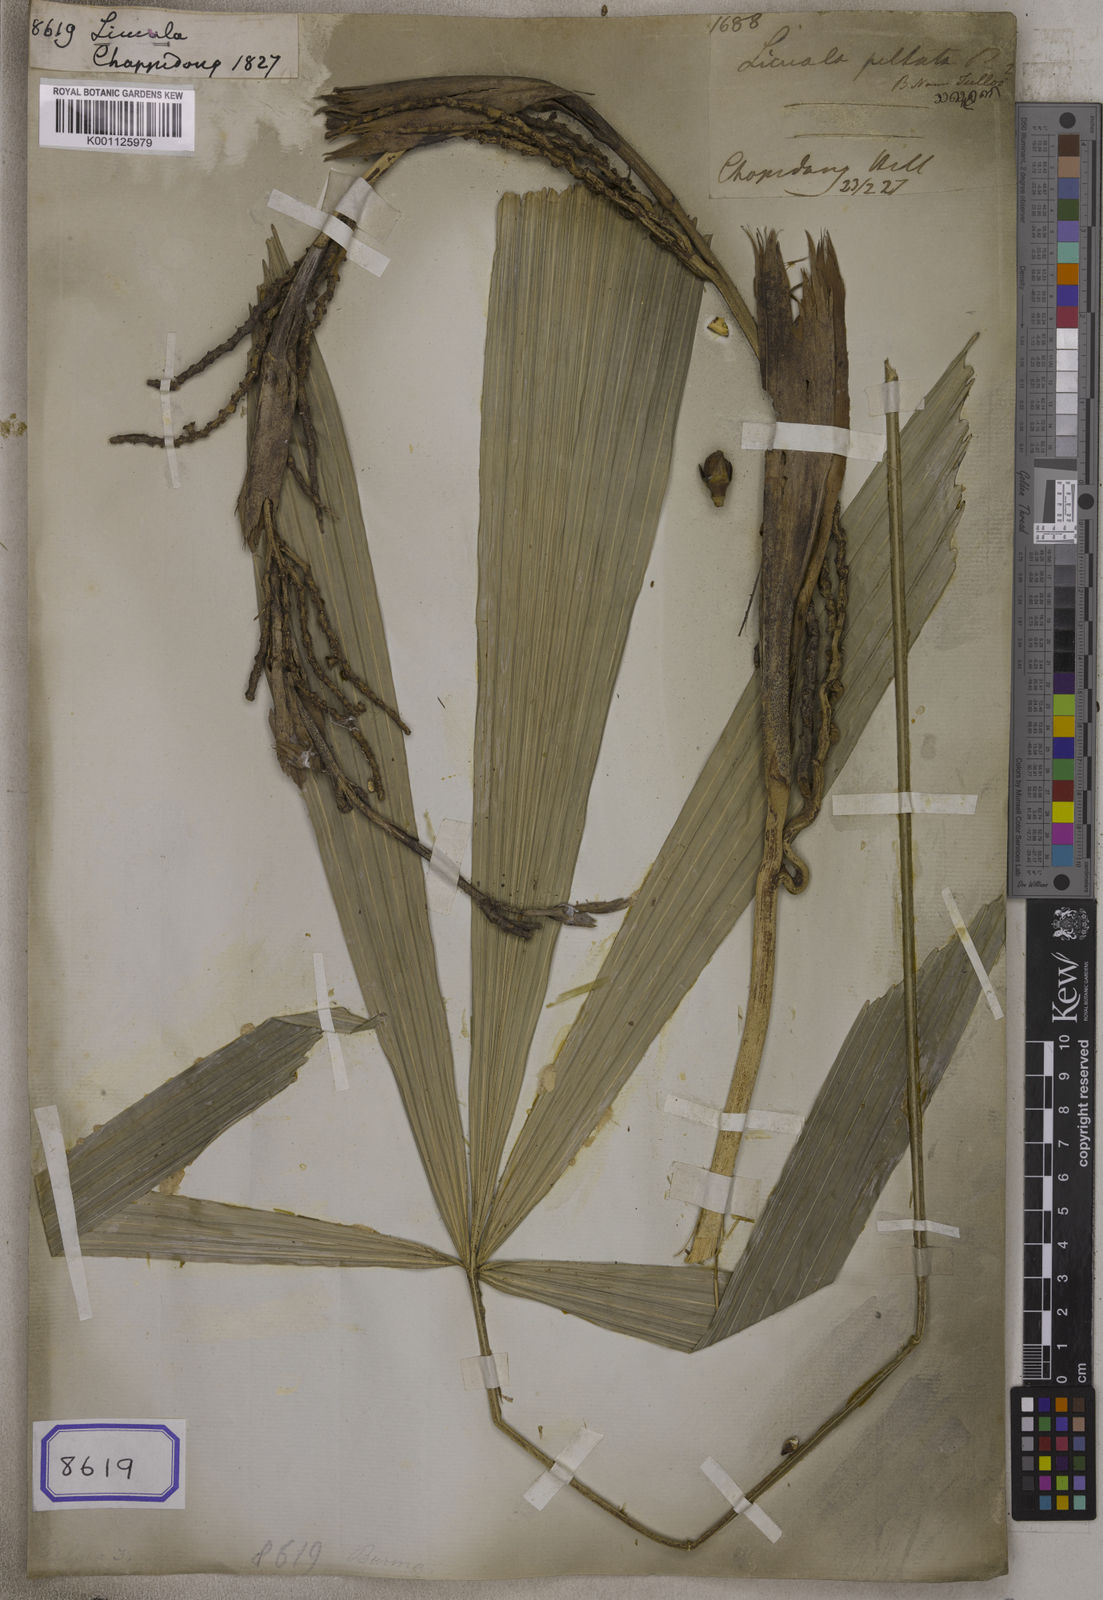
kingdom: Plantae
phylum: Tracheophyta
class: Liliopsida
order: Arecales
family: Arecaceae
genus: Licuala
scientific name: Licuala
